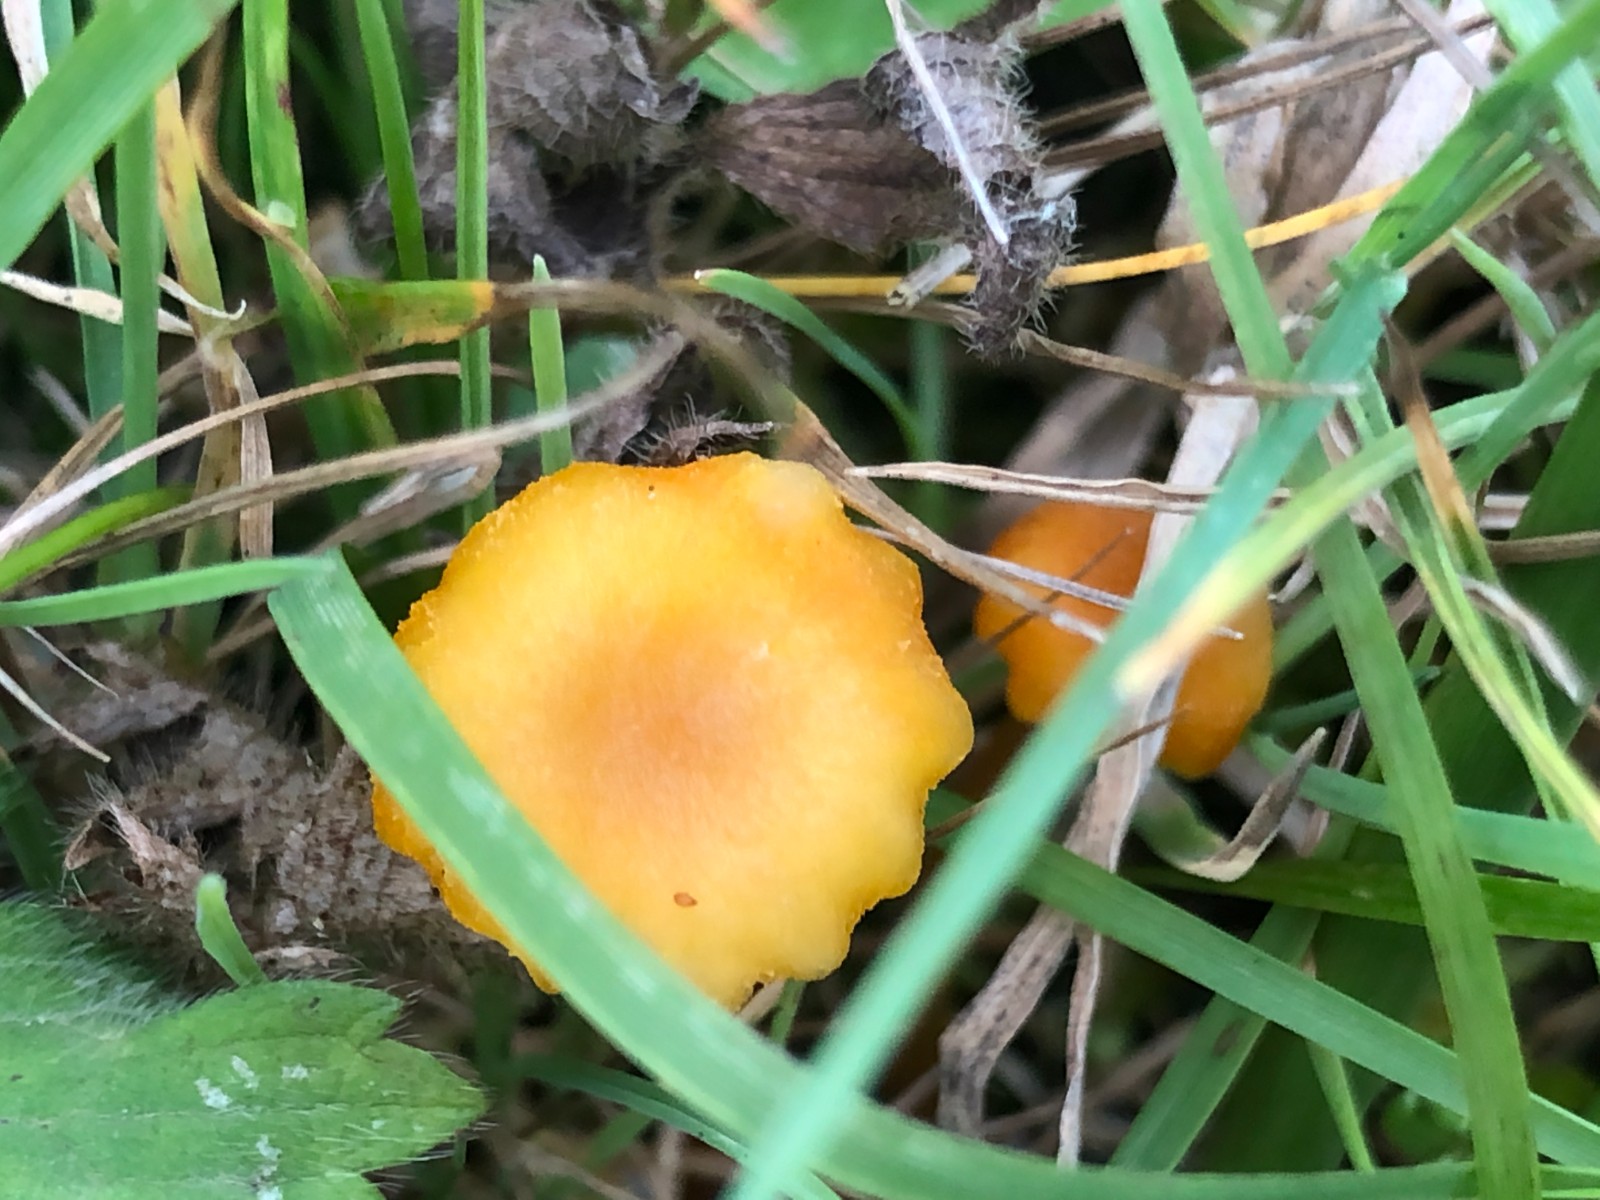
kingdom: Fungi
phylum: Basidiomycota
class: Agaricomycetes
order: Agaricales
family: Hygrophoraceae
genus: Hygrocybe
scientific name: Hygrocybe cantharellus
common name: kantarel-vokshat
